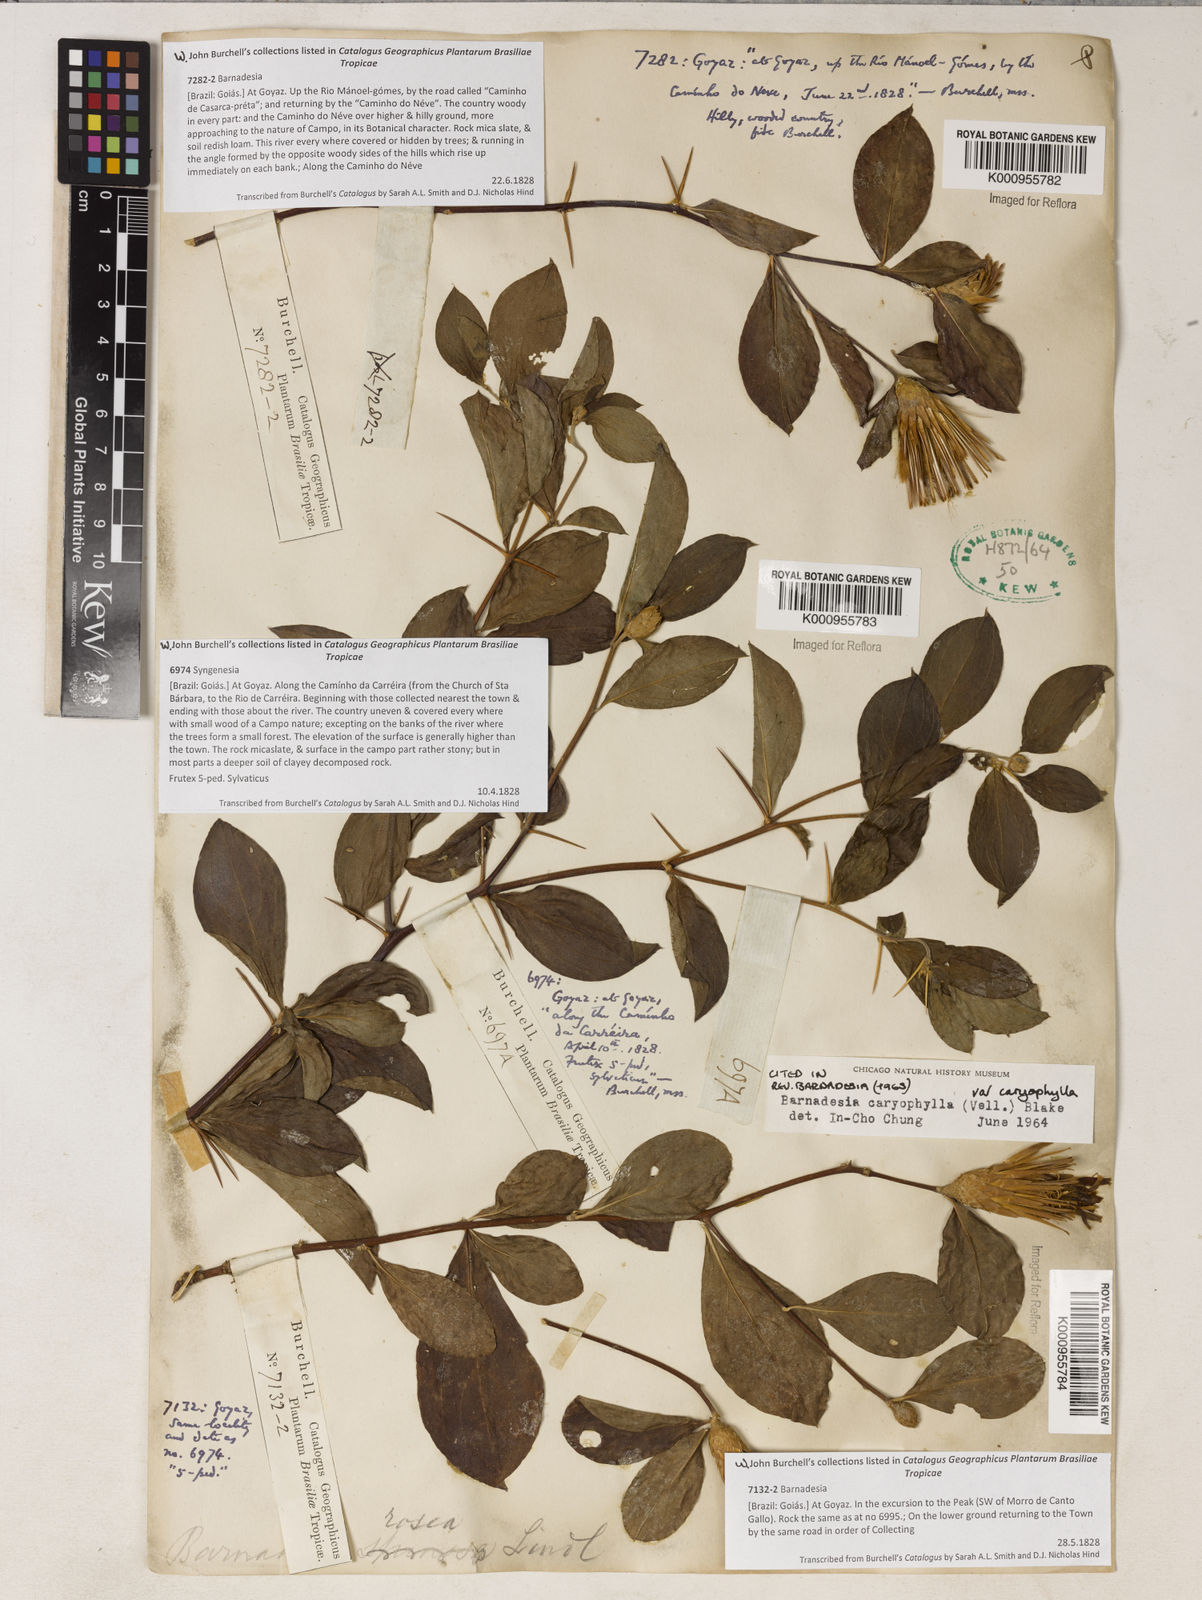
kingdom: Plantae
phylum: Tracheophyta
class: Magnoliopsida
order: Asterales
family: Asteraceae
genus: Barnadesia
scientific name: Barnadesia caryophylla
